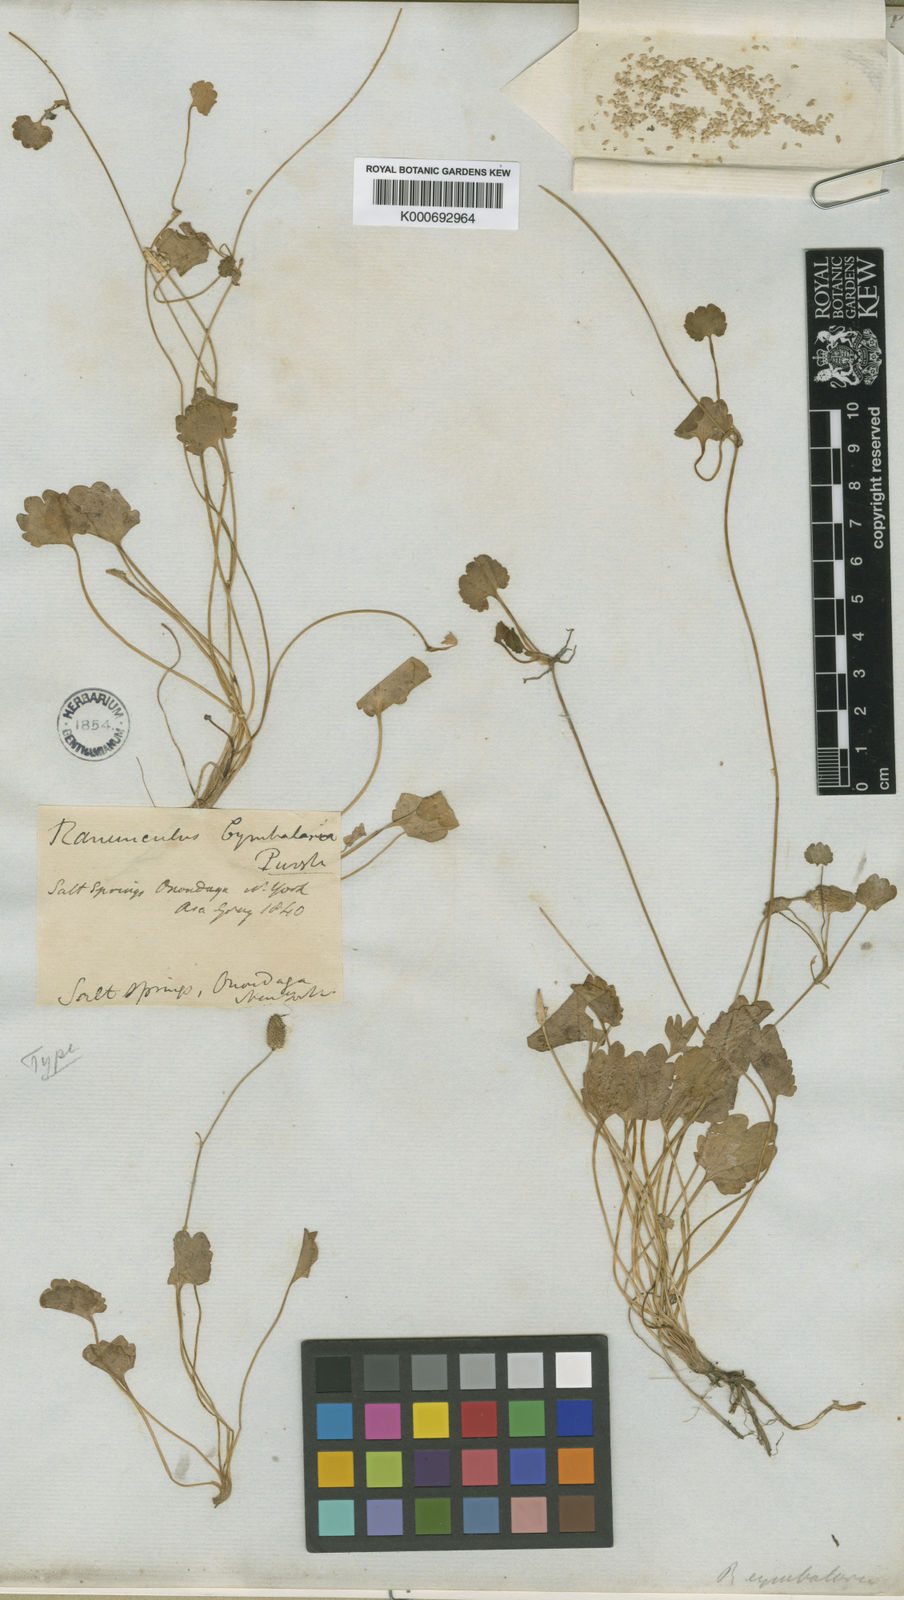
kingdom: Plantae
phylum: Tracheophyta
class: Magnoliopsida
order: Ranunculales
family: Ranunculaceae
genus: Halerpestes
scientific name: Halerpestes cymbalaria
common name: Seaside crowfoot
